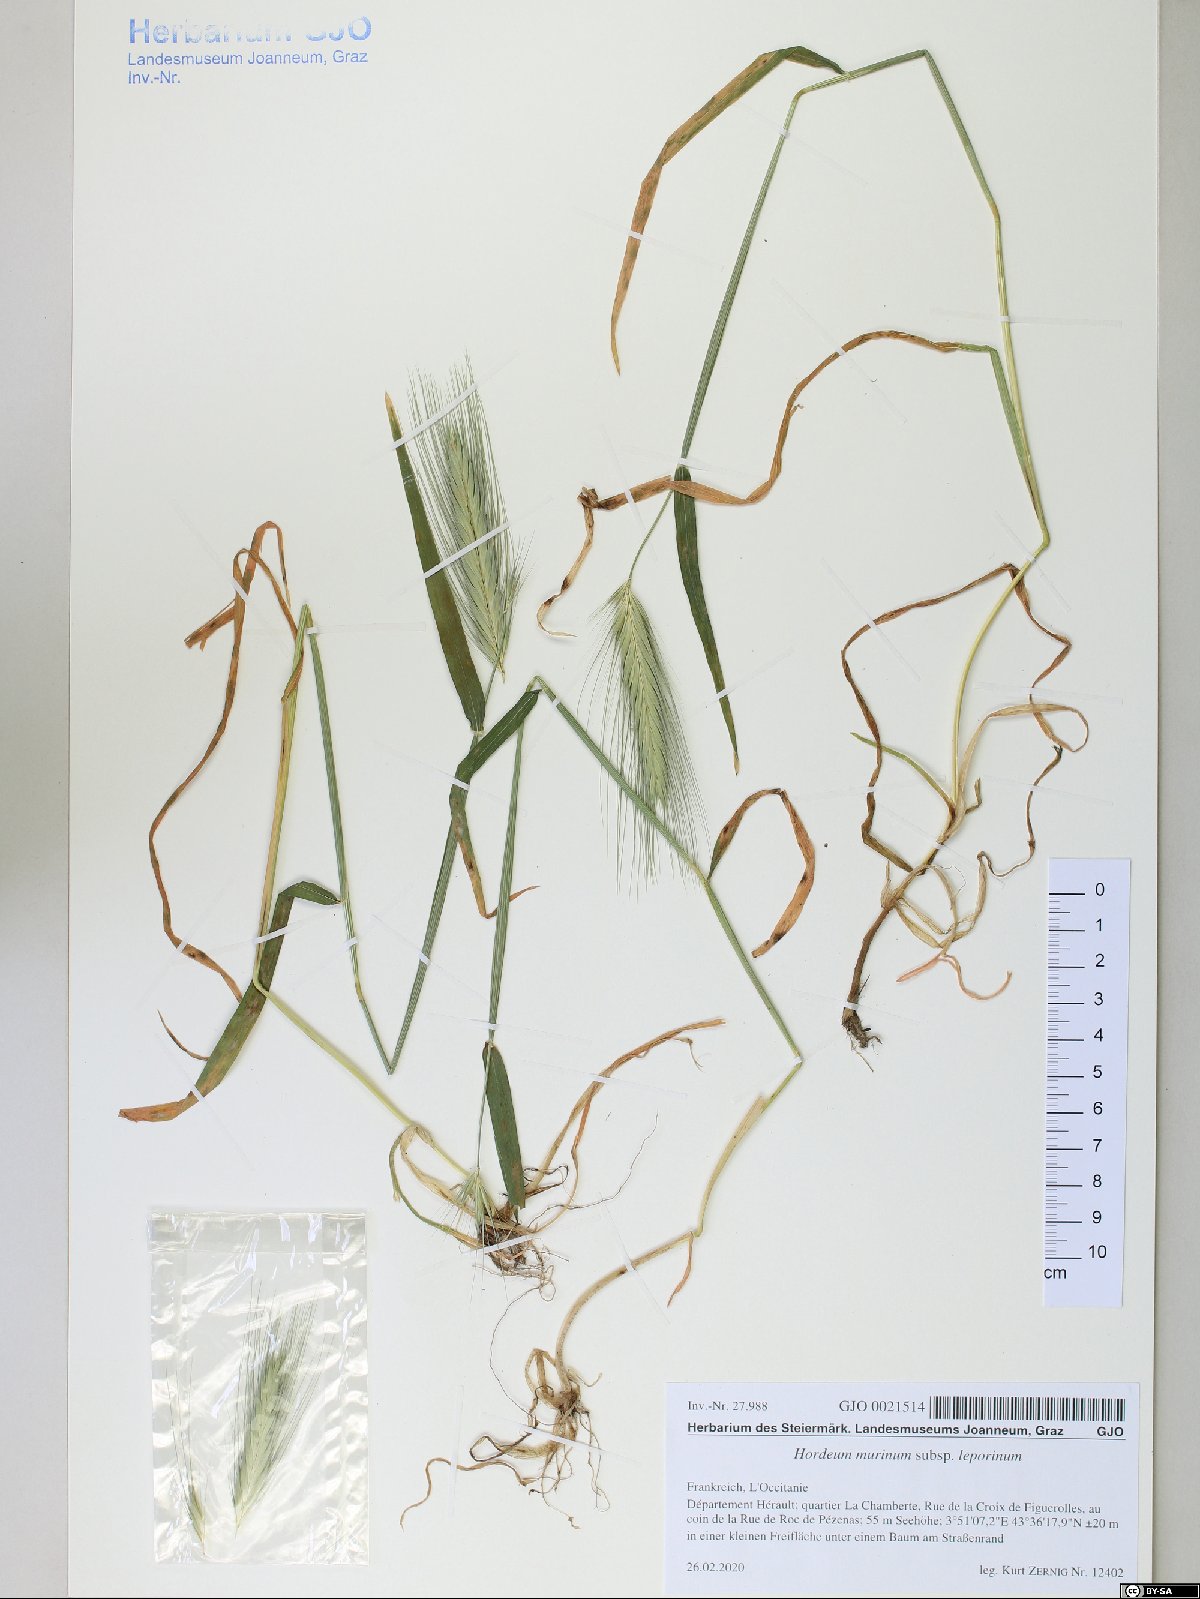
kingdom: Plantae
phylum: Tracheophyta
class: Liliopsida
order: Poales
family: Poaceae
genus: Hordeum
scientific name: Hordeum murinum
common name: Wall barley
